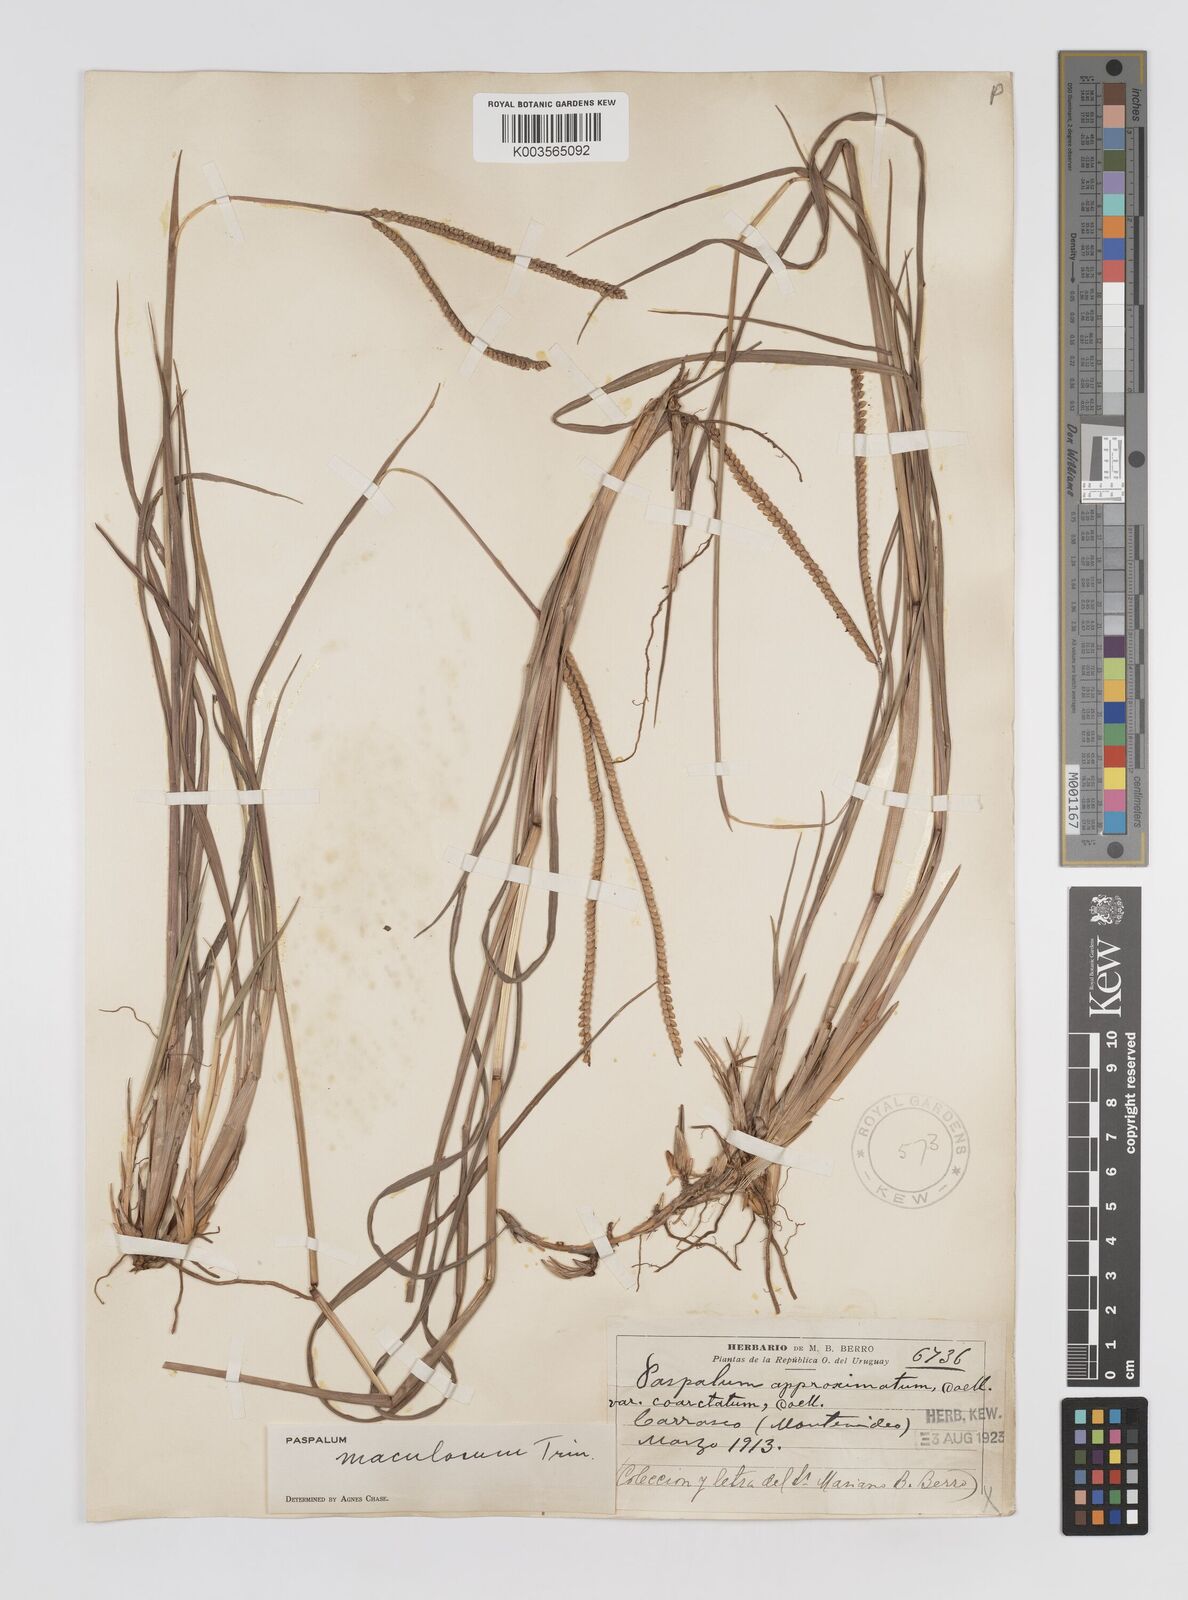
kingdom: Plantae
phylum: Tracheophyta
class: Liliopsida
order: Poales
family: Poaceae
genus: Paspalum
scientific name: Paspalum maculosum
